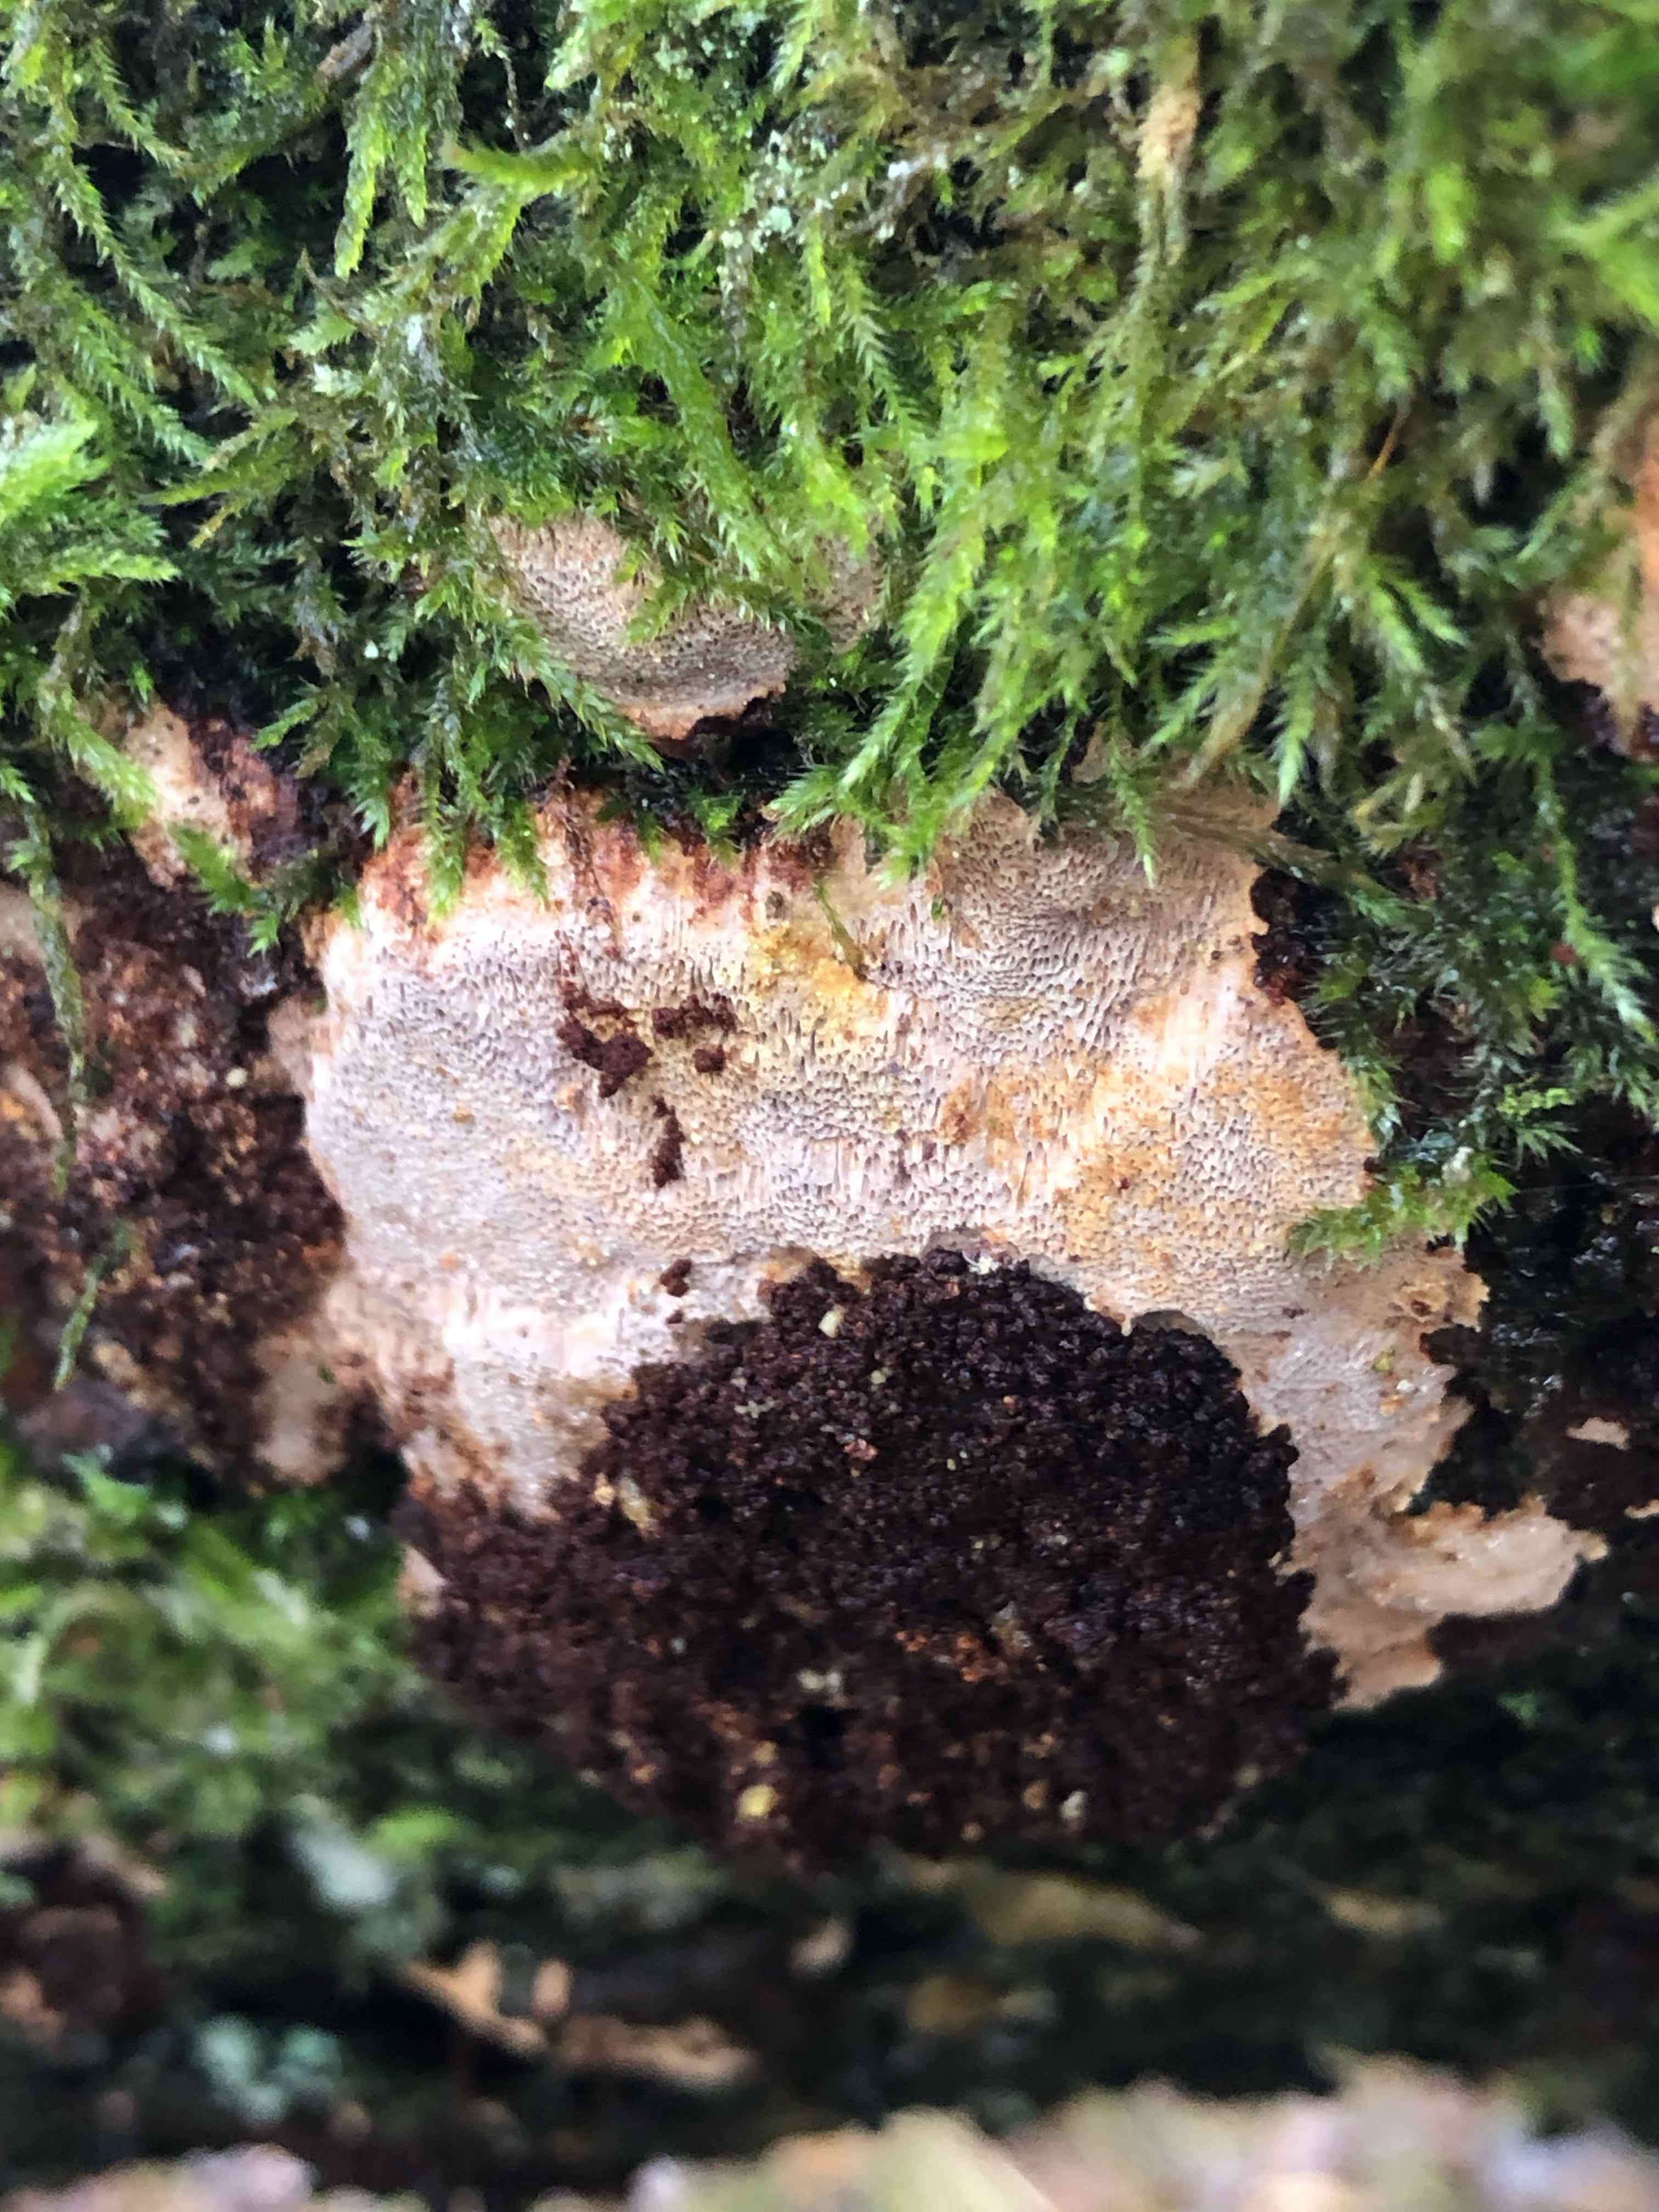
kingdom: Fungi
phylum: Basidiomycota
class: Agaricomycetes
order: Hymenochaetales
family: Hymenochaetaceae
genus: Fuscoporia
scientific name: Fuscoporia ferrea
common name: skorpe-ildporesvamp
